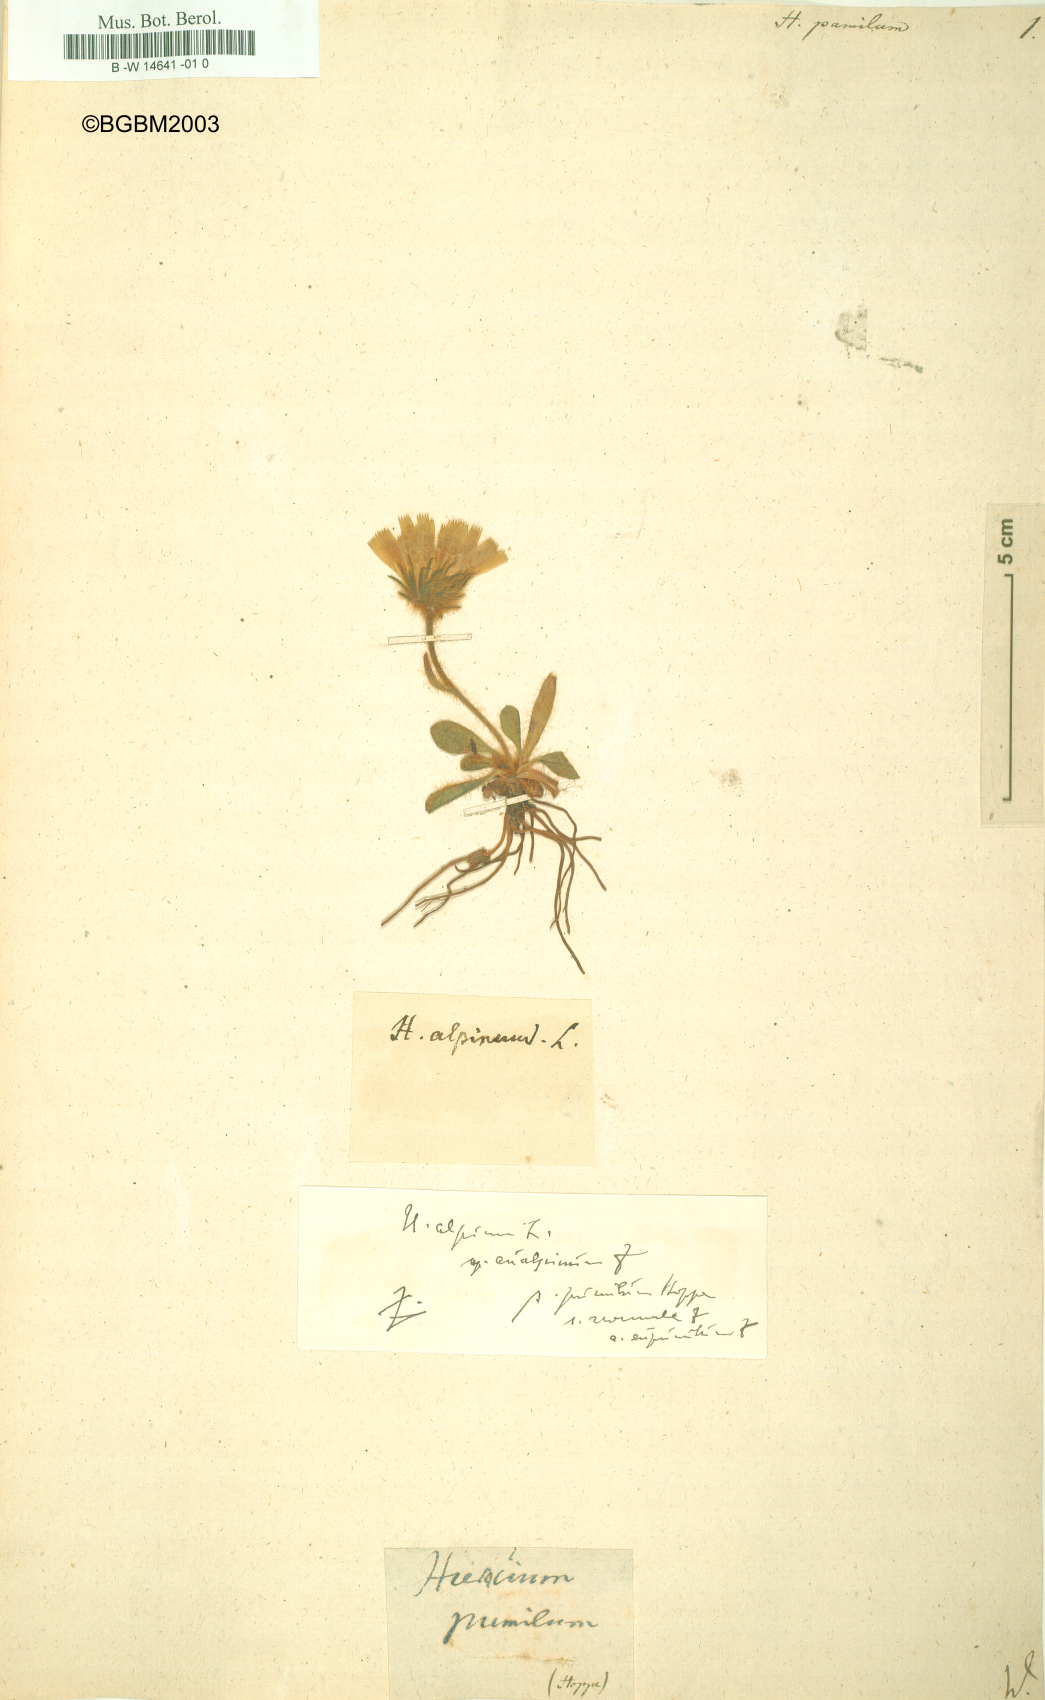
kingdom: Plantae
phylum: Tracheophyta
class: Magnoliopsida
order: Asterales
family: Asteraceae
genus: Hieracium
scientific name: Hieracium pumilum
